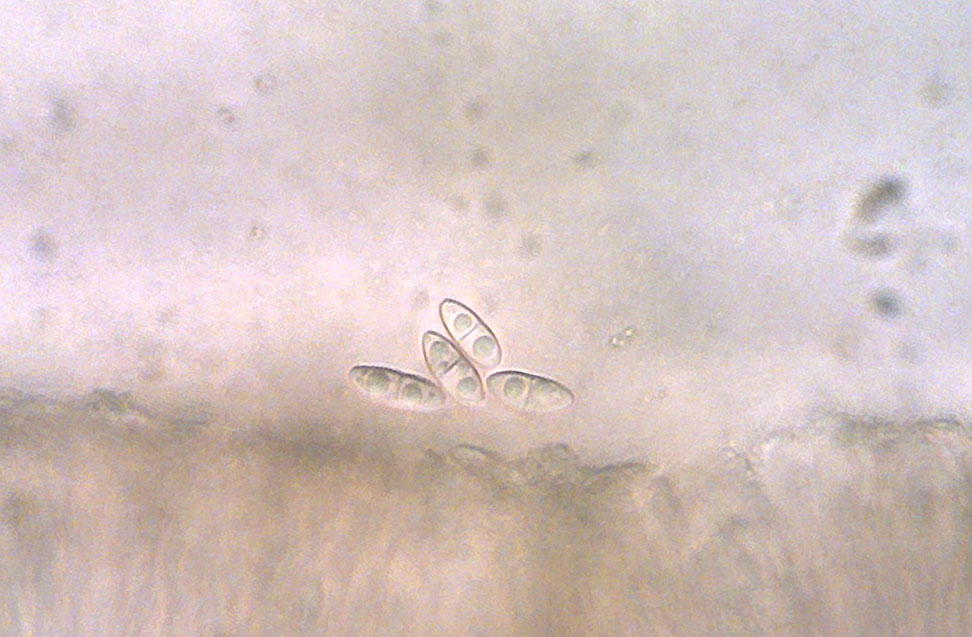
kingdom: Fungi
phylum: Ascomycota
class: Lecanoromycetes
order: Lecanorales
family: Ramalinaceae
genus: Lecania
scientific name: Lecania cyrtella
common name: hylde-lecania
